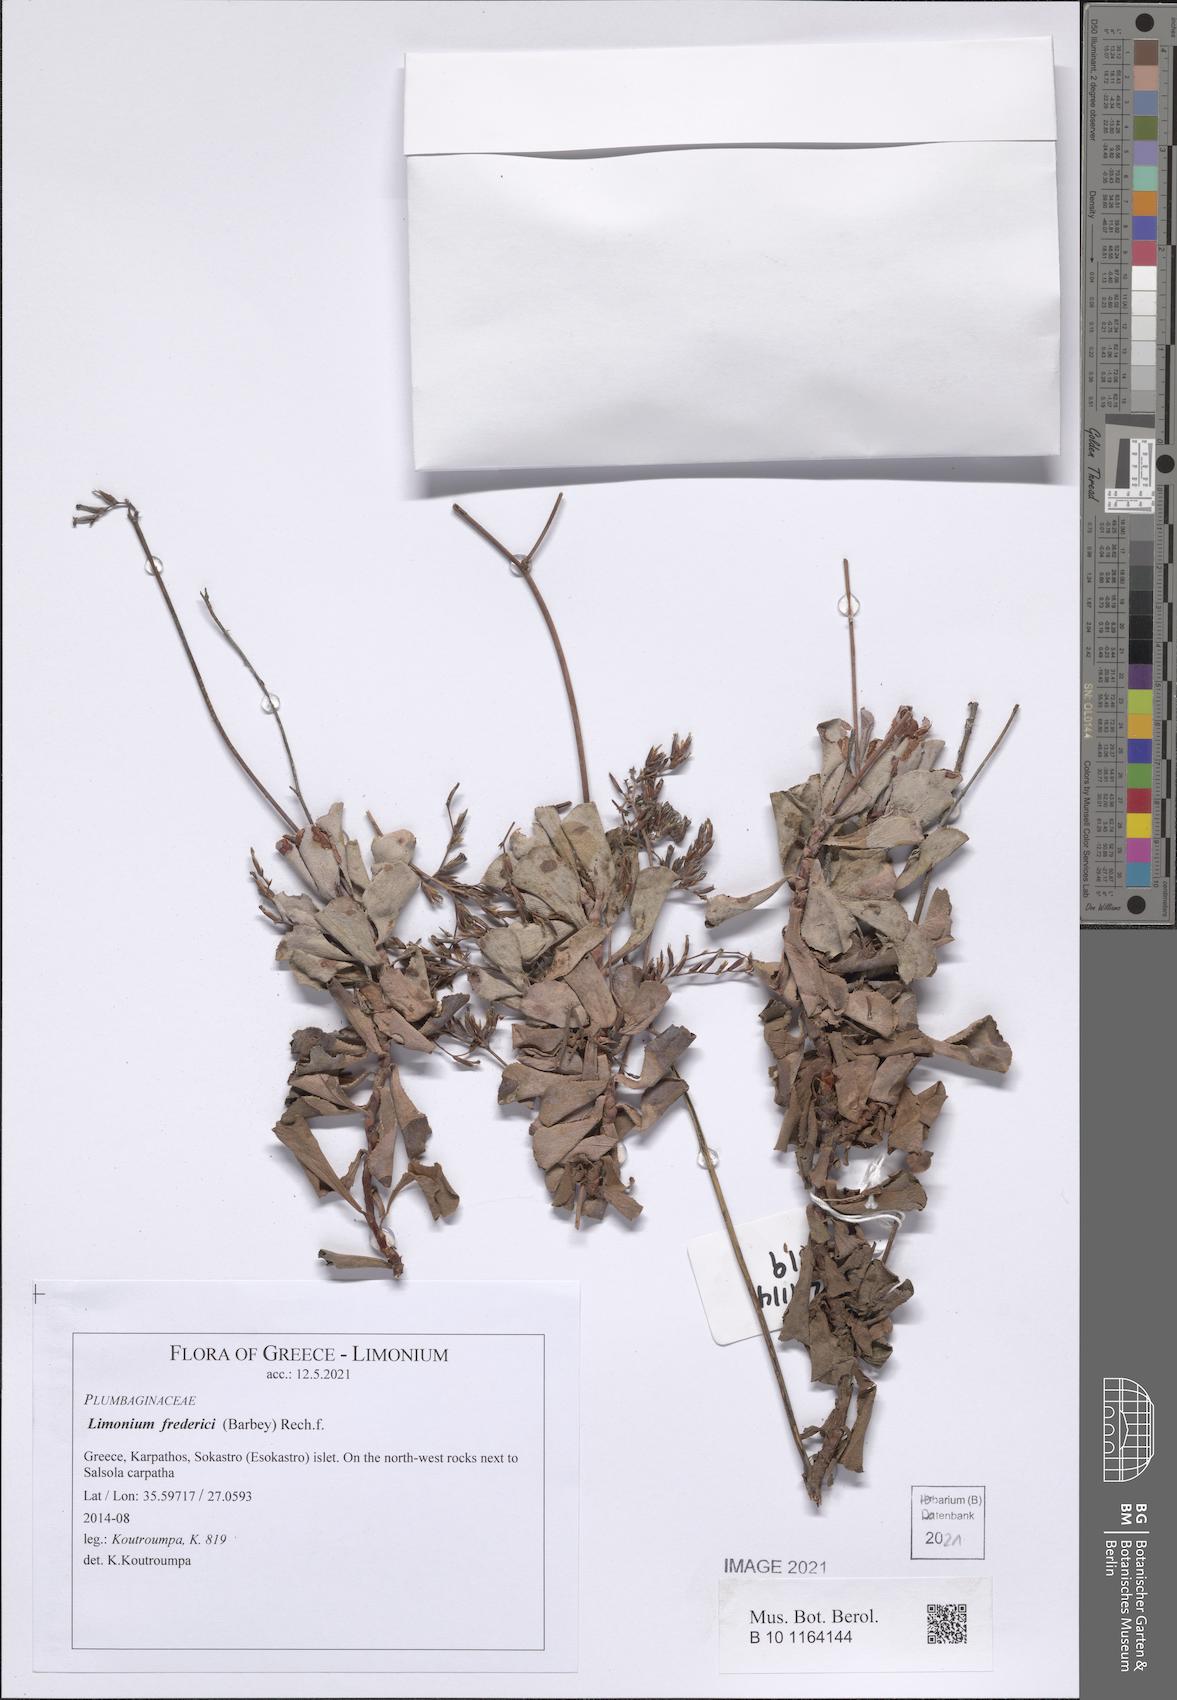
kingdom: Plantae
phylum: Tracheophyta
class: Magnoliopsida
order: Caryophyllales
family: Plumbaginaceae
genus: Limonium
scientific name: Limonium frederici
